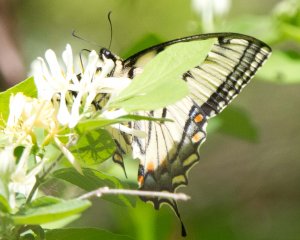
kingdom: Animalia
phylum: Arthropoda
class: Insecta
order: Lepidoptera
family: Papilionidae
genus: Pterourus
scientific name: Pterourus canadensis
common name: Canadian Tiger Swallowtail
